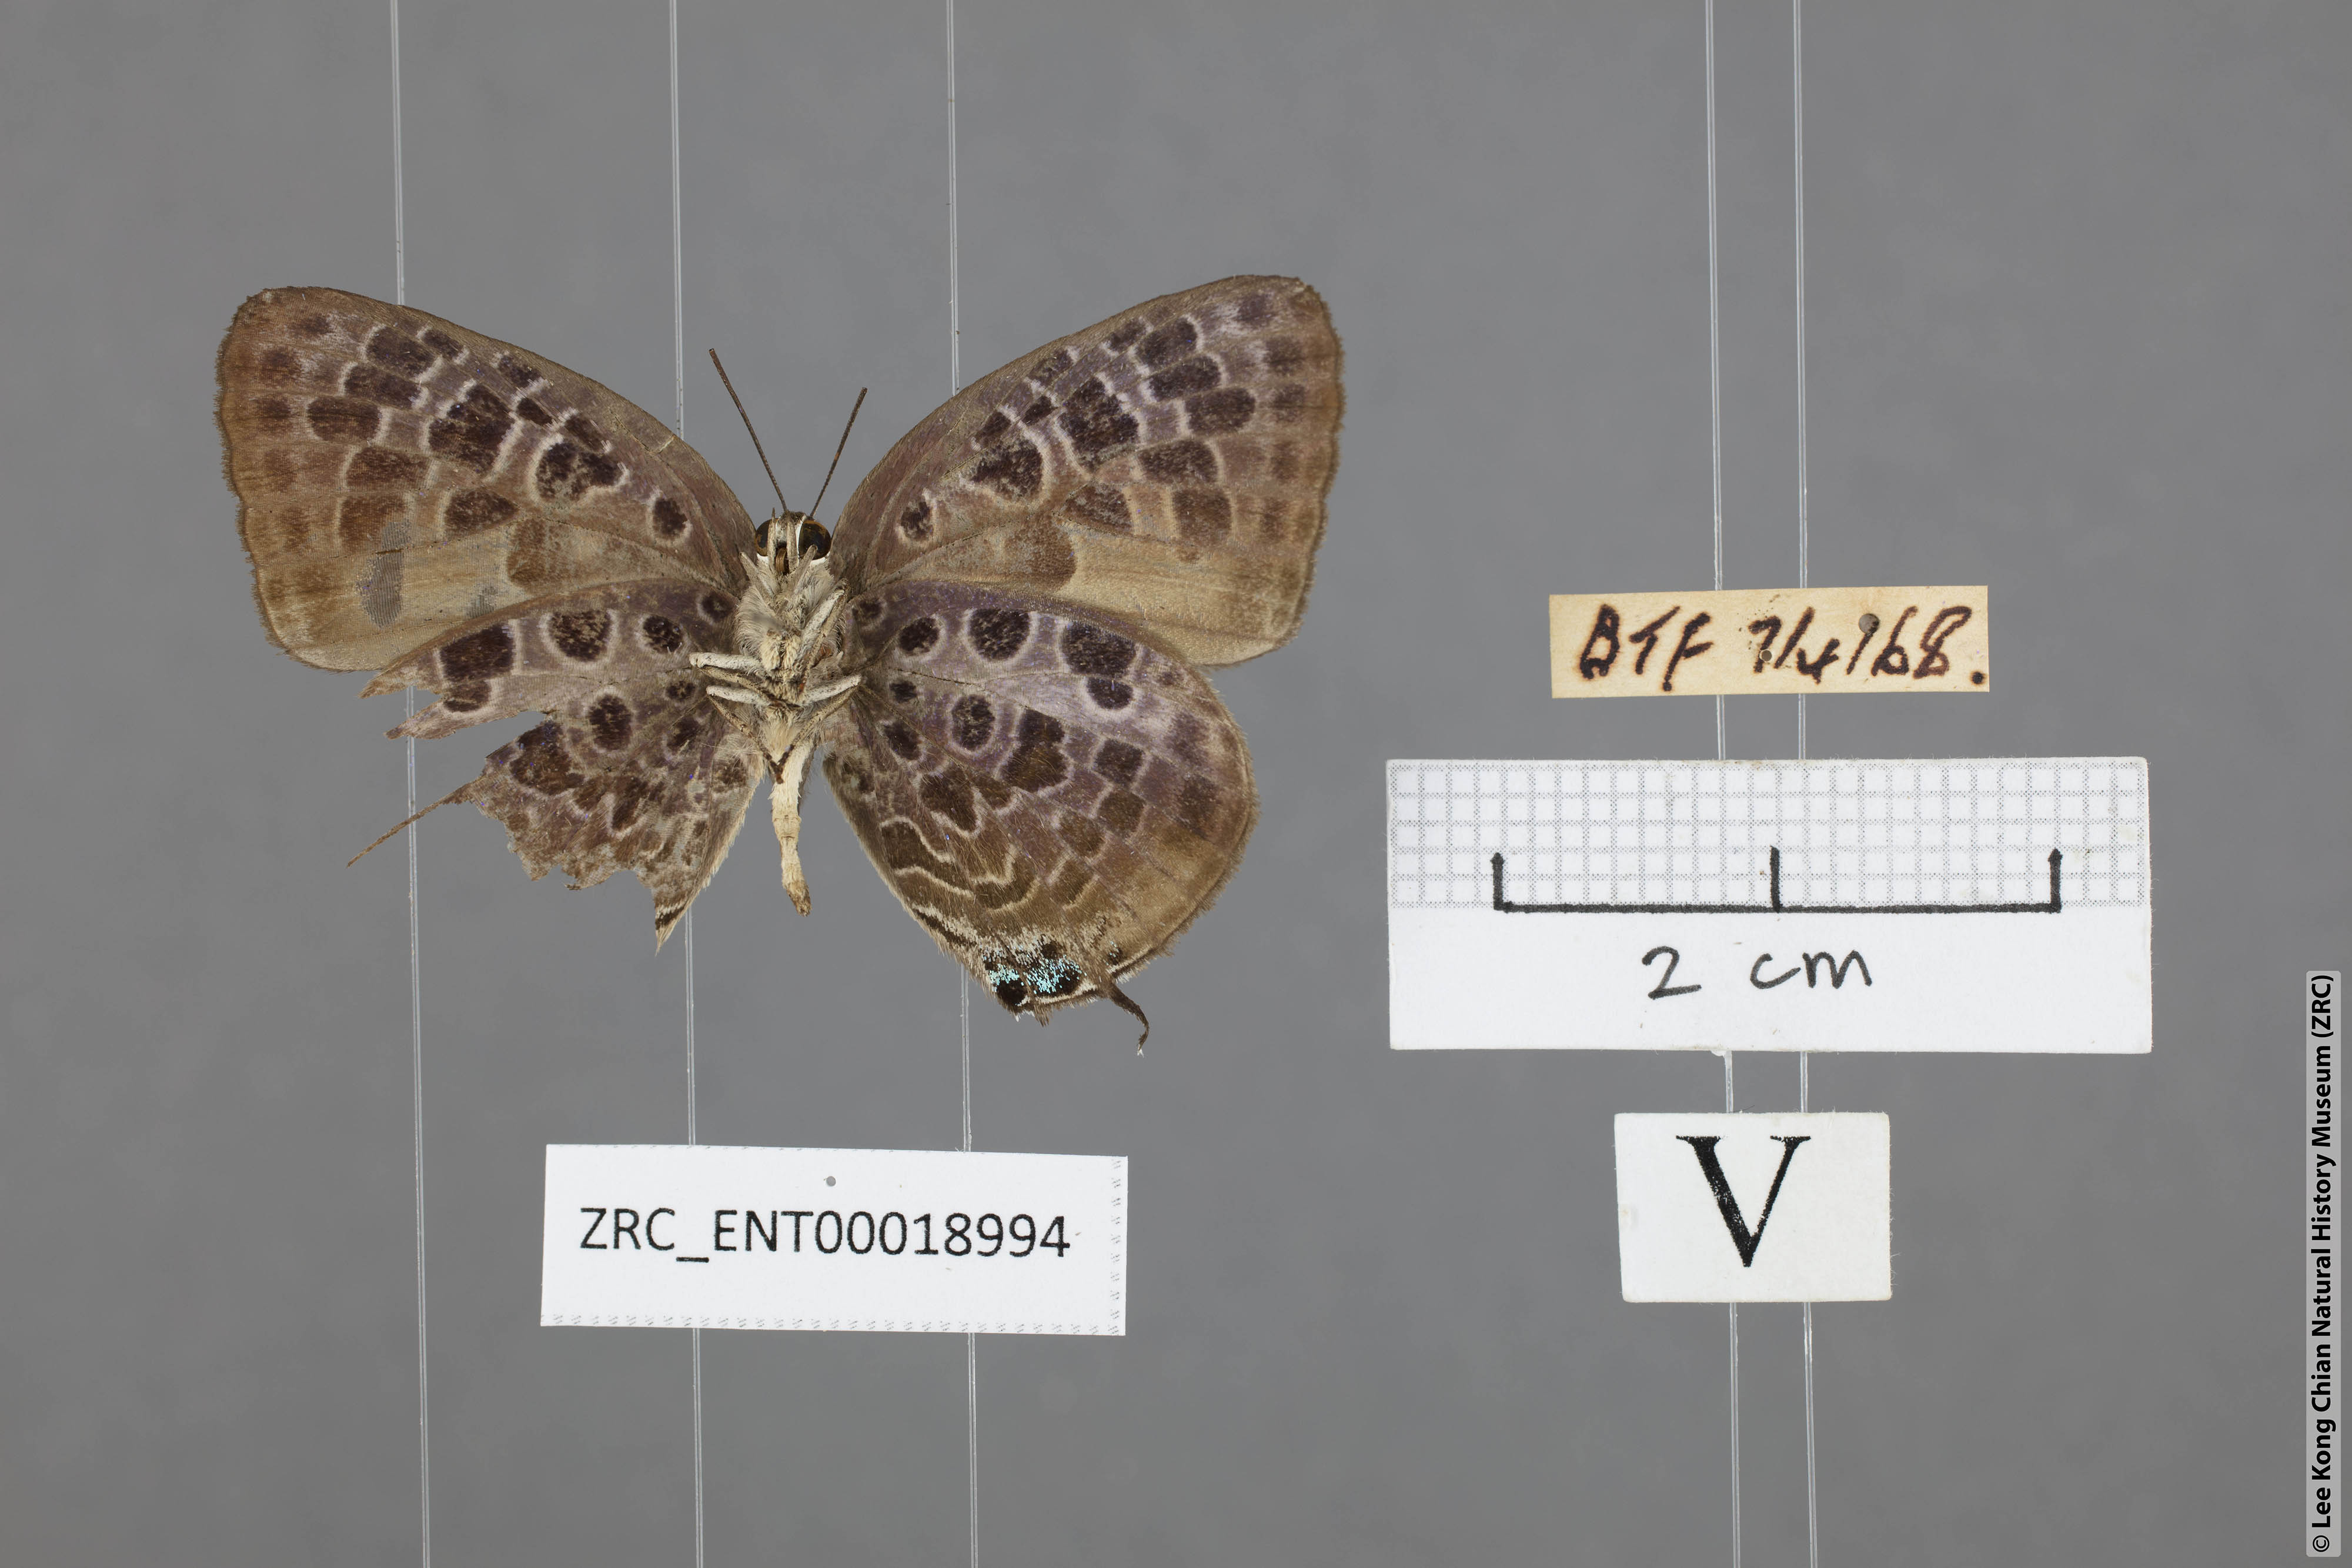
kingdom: Animalia
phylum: Arthropoda
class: Insecta
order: Lepidoptera
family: Lycaenidae
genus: Arhopala
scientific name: Arhopala achelous
